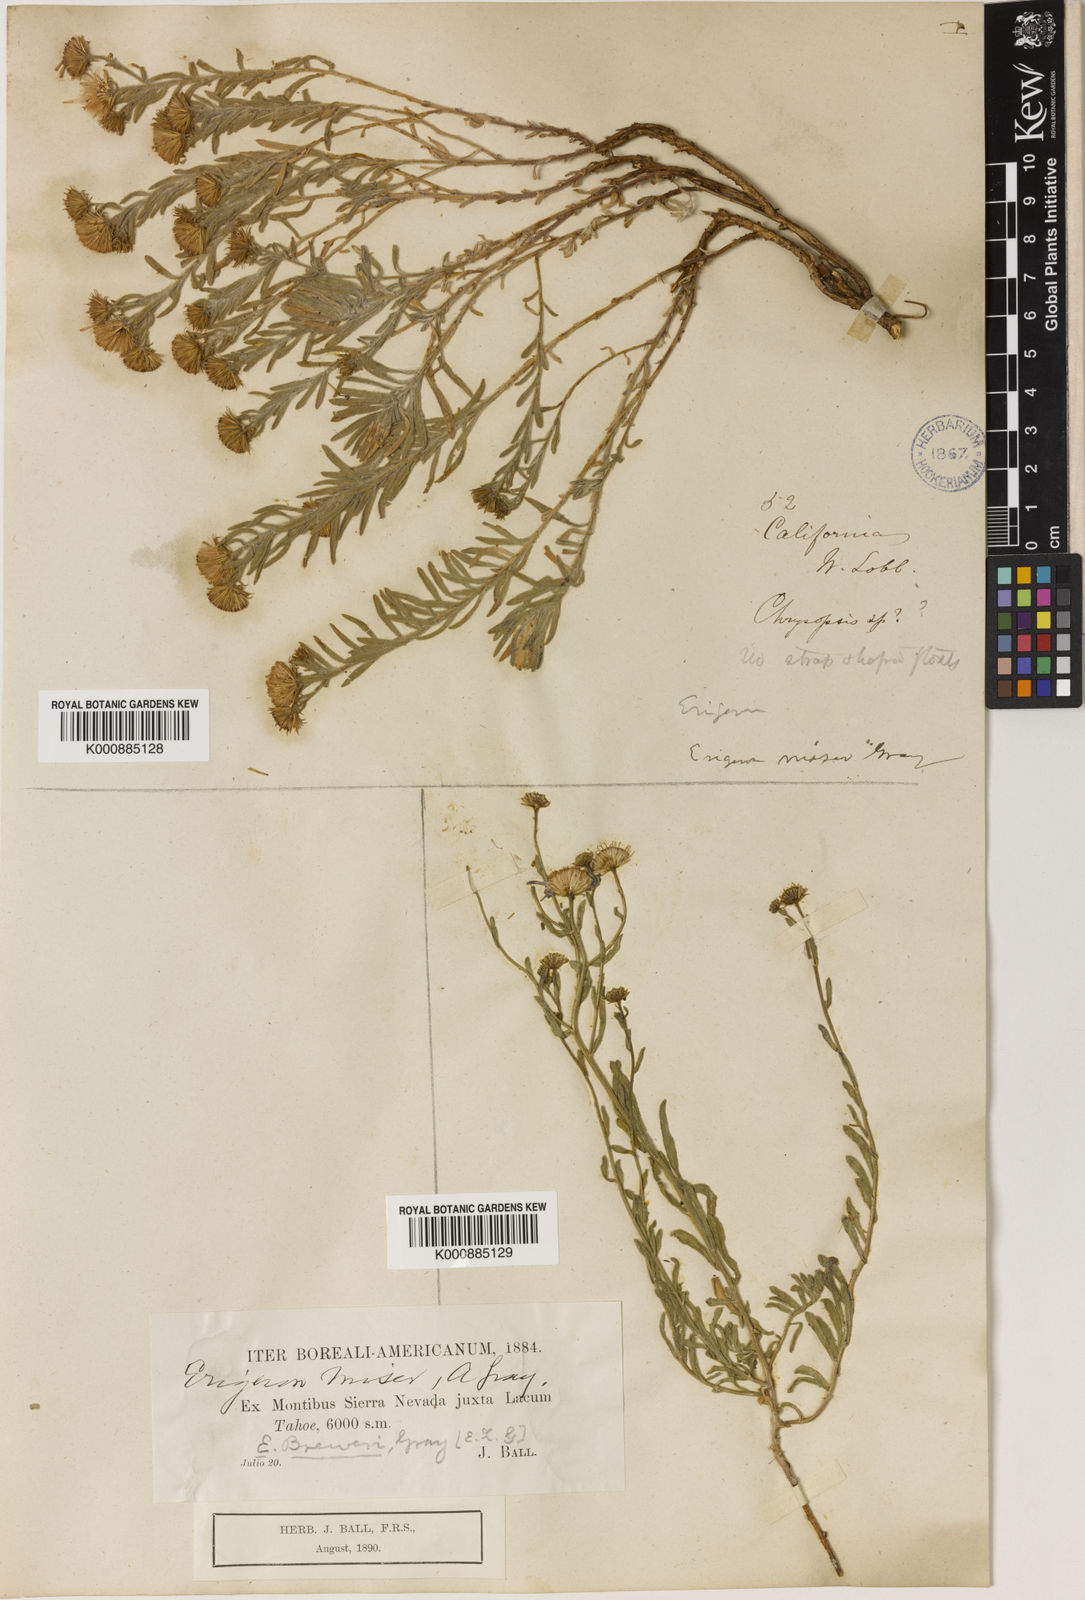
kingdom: Plantae
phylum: Tracheophyta
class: Magnoliopsida
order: Asterales
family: Asteraceae
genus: Erigeron
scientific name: Erigeron
